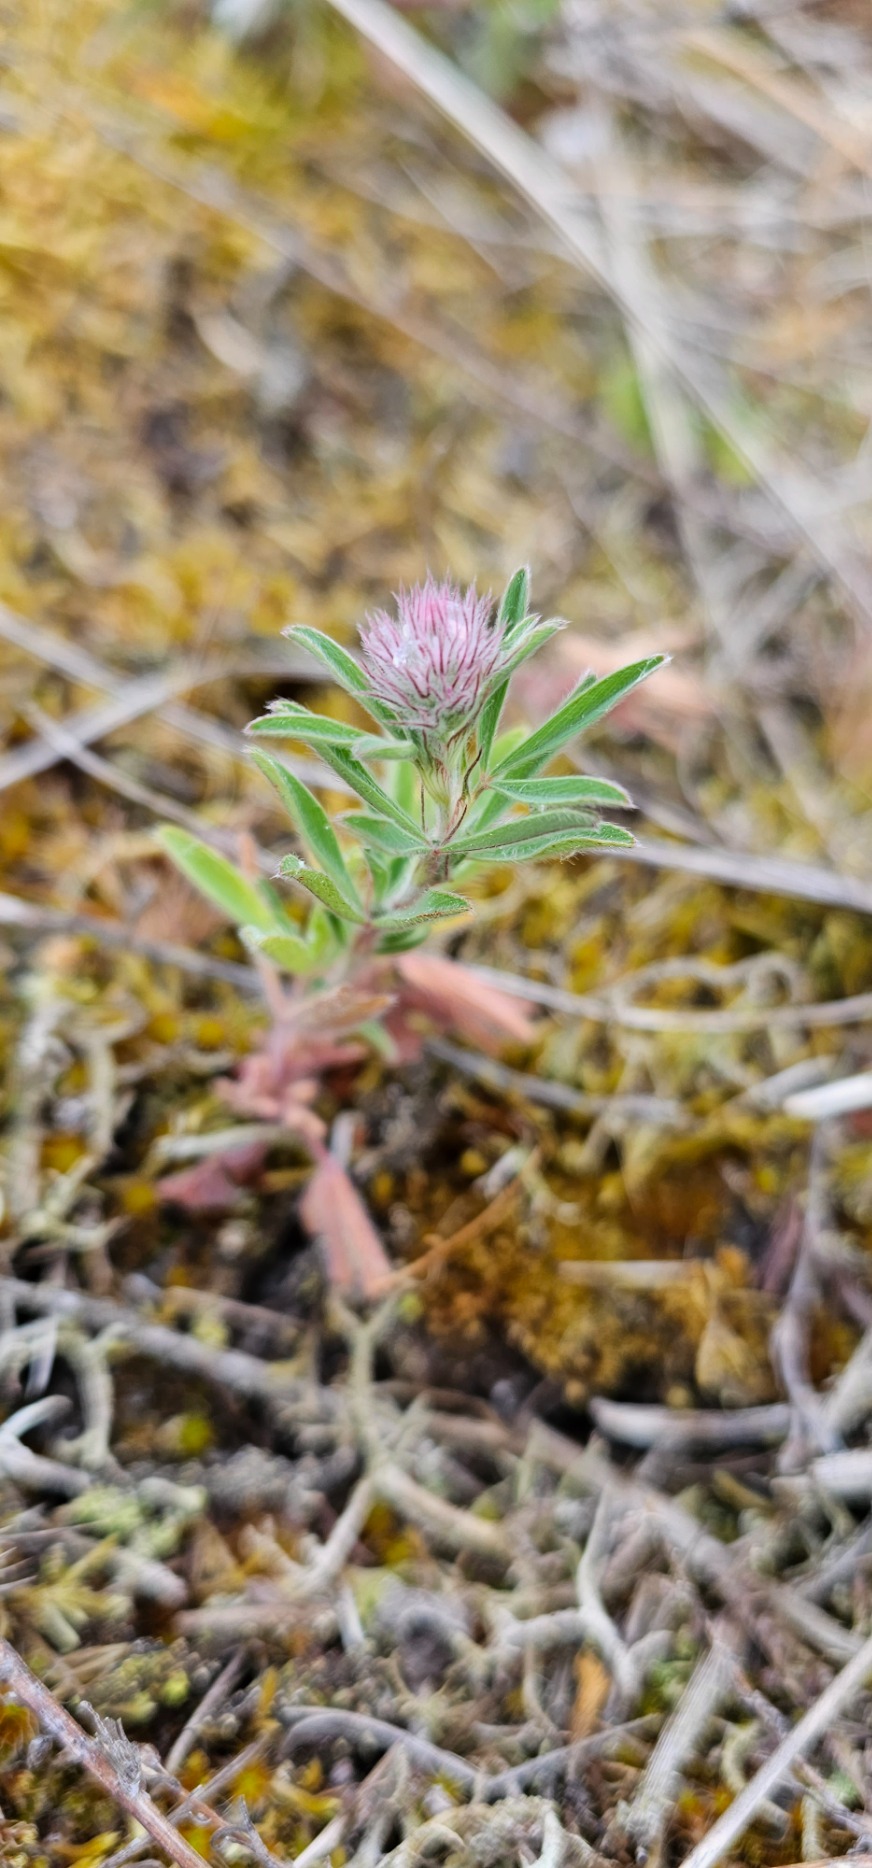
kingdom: Plantae
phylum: Tracheophyta
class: Magnoliopsida
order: Fabales
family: Fabaceae
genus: Trifolium
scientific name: Trifolium arvense
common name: Hare-kløver
